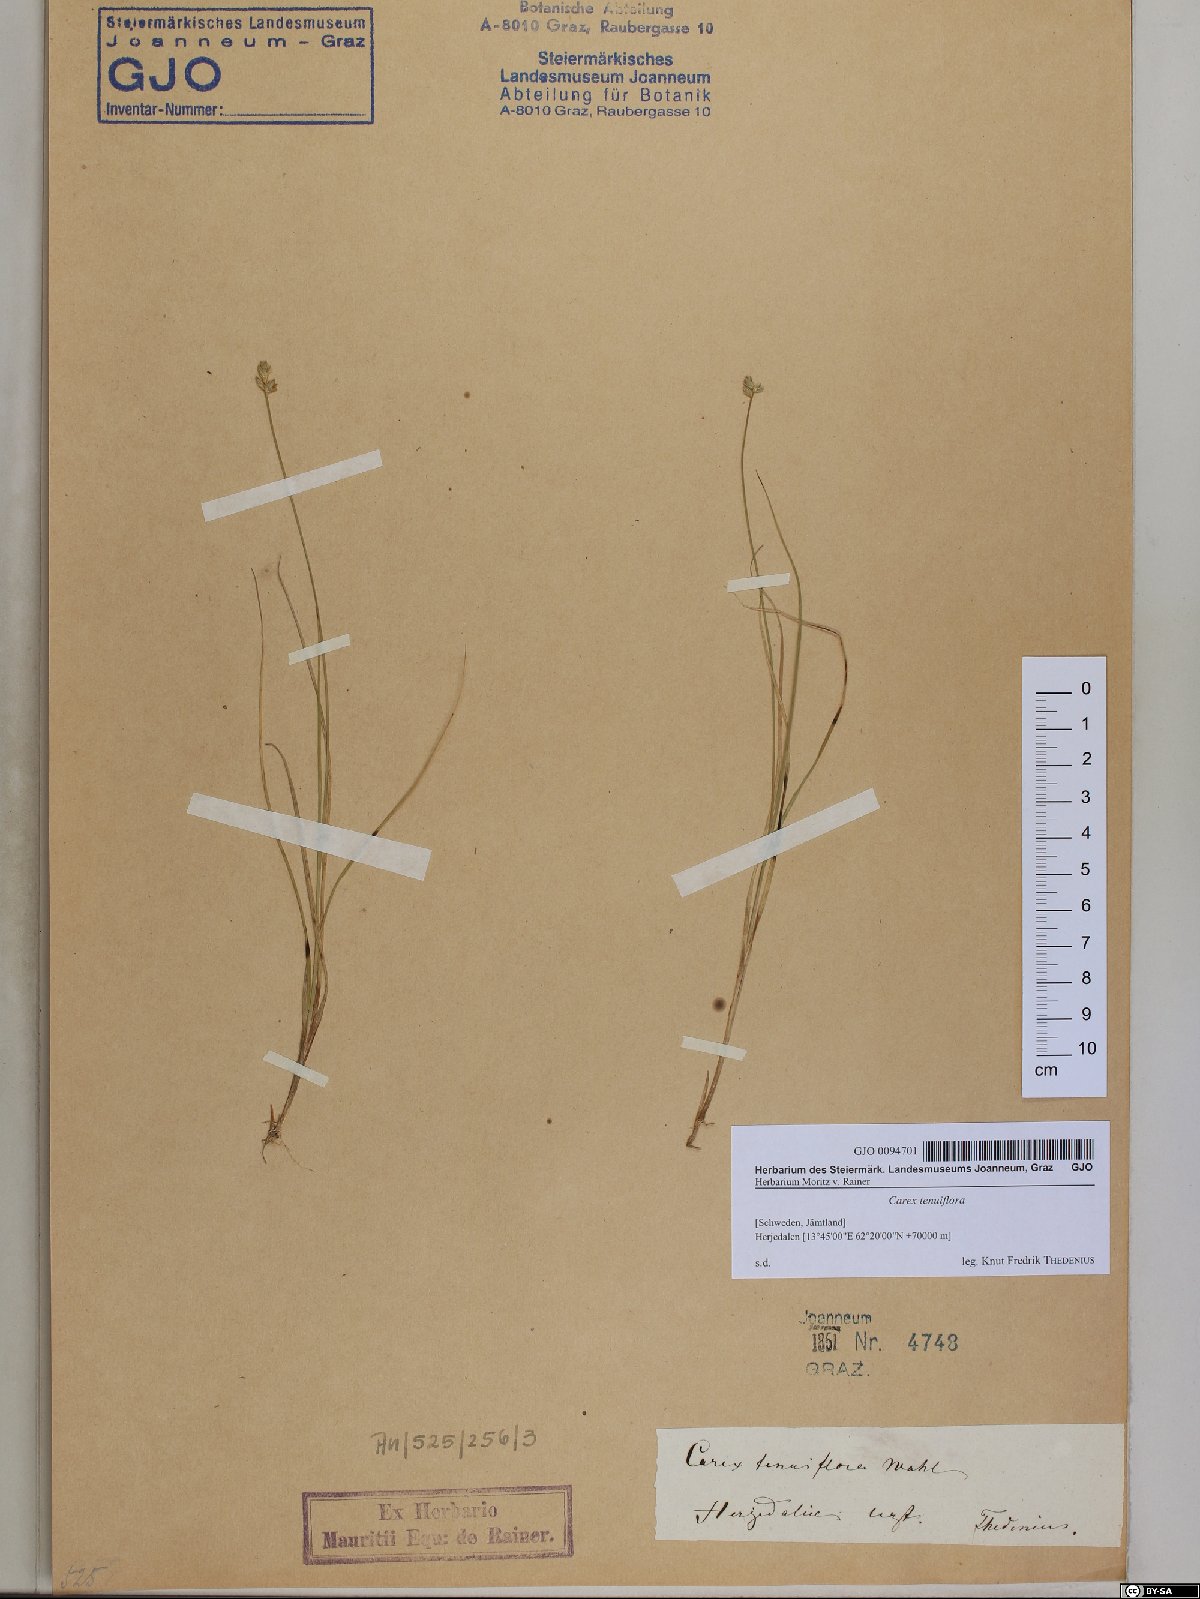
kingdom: Plantae
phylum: Tracheophyta
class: Liliopsida
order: Poales
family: Cyperaceae
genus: Carex
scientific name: Carex tenuiflora
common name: Sparse-flowered sedge
